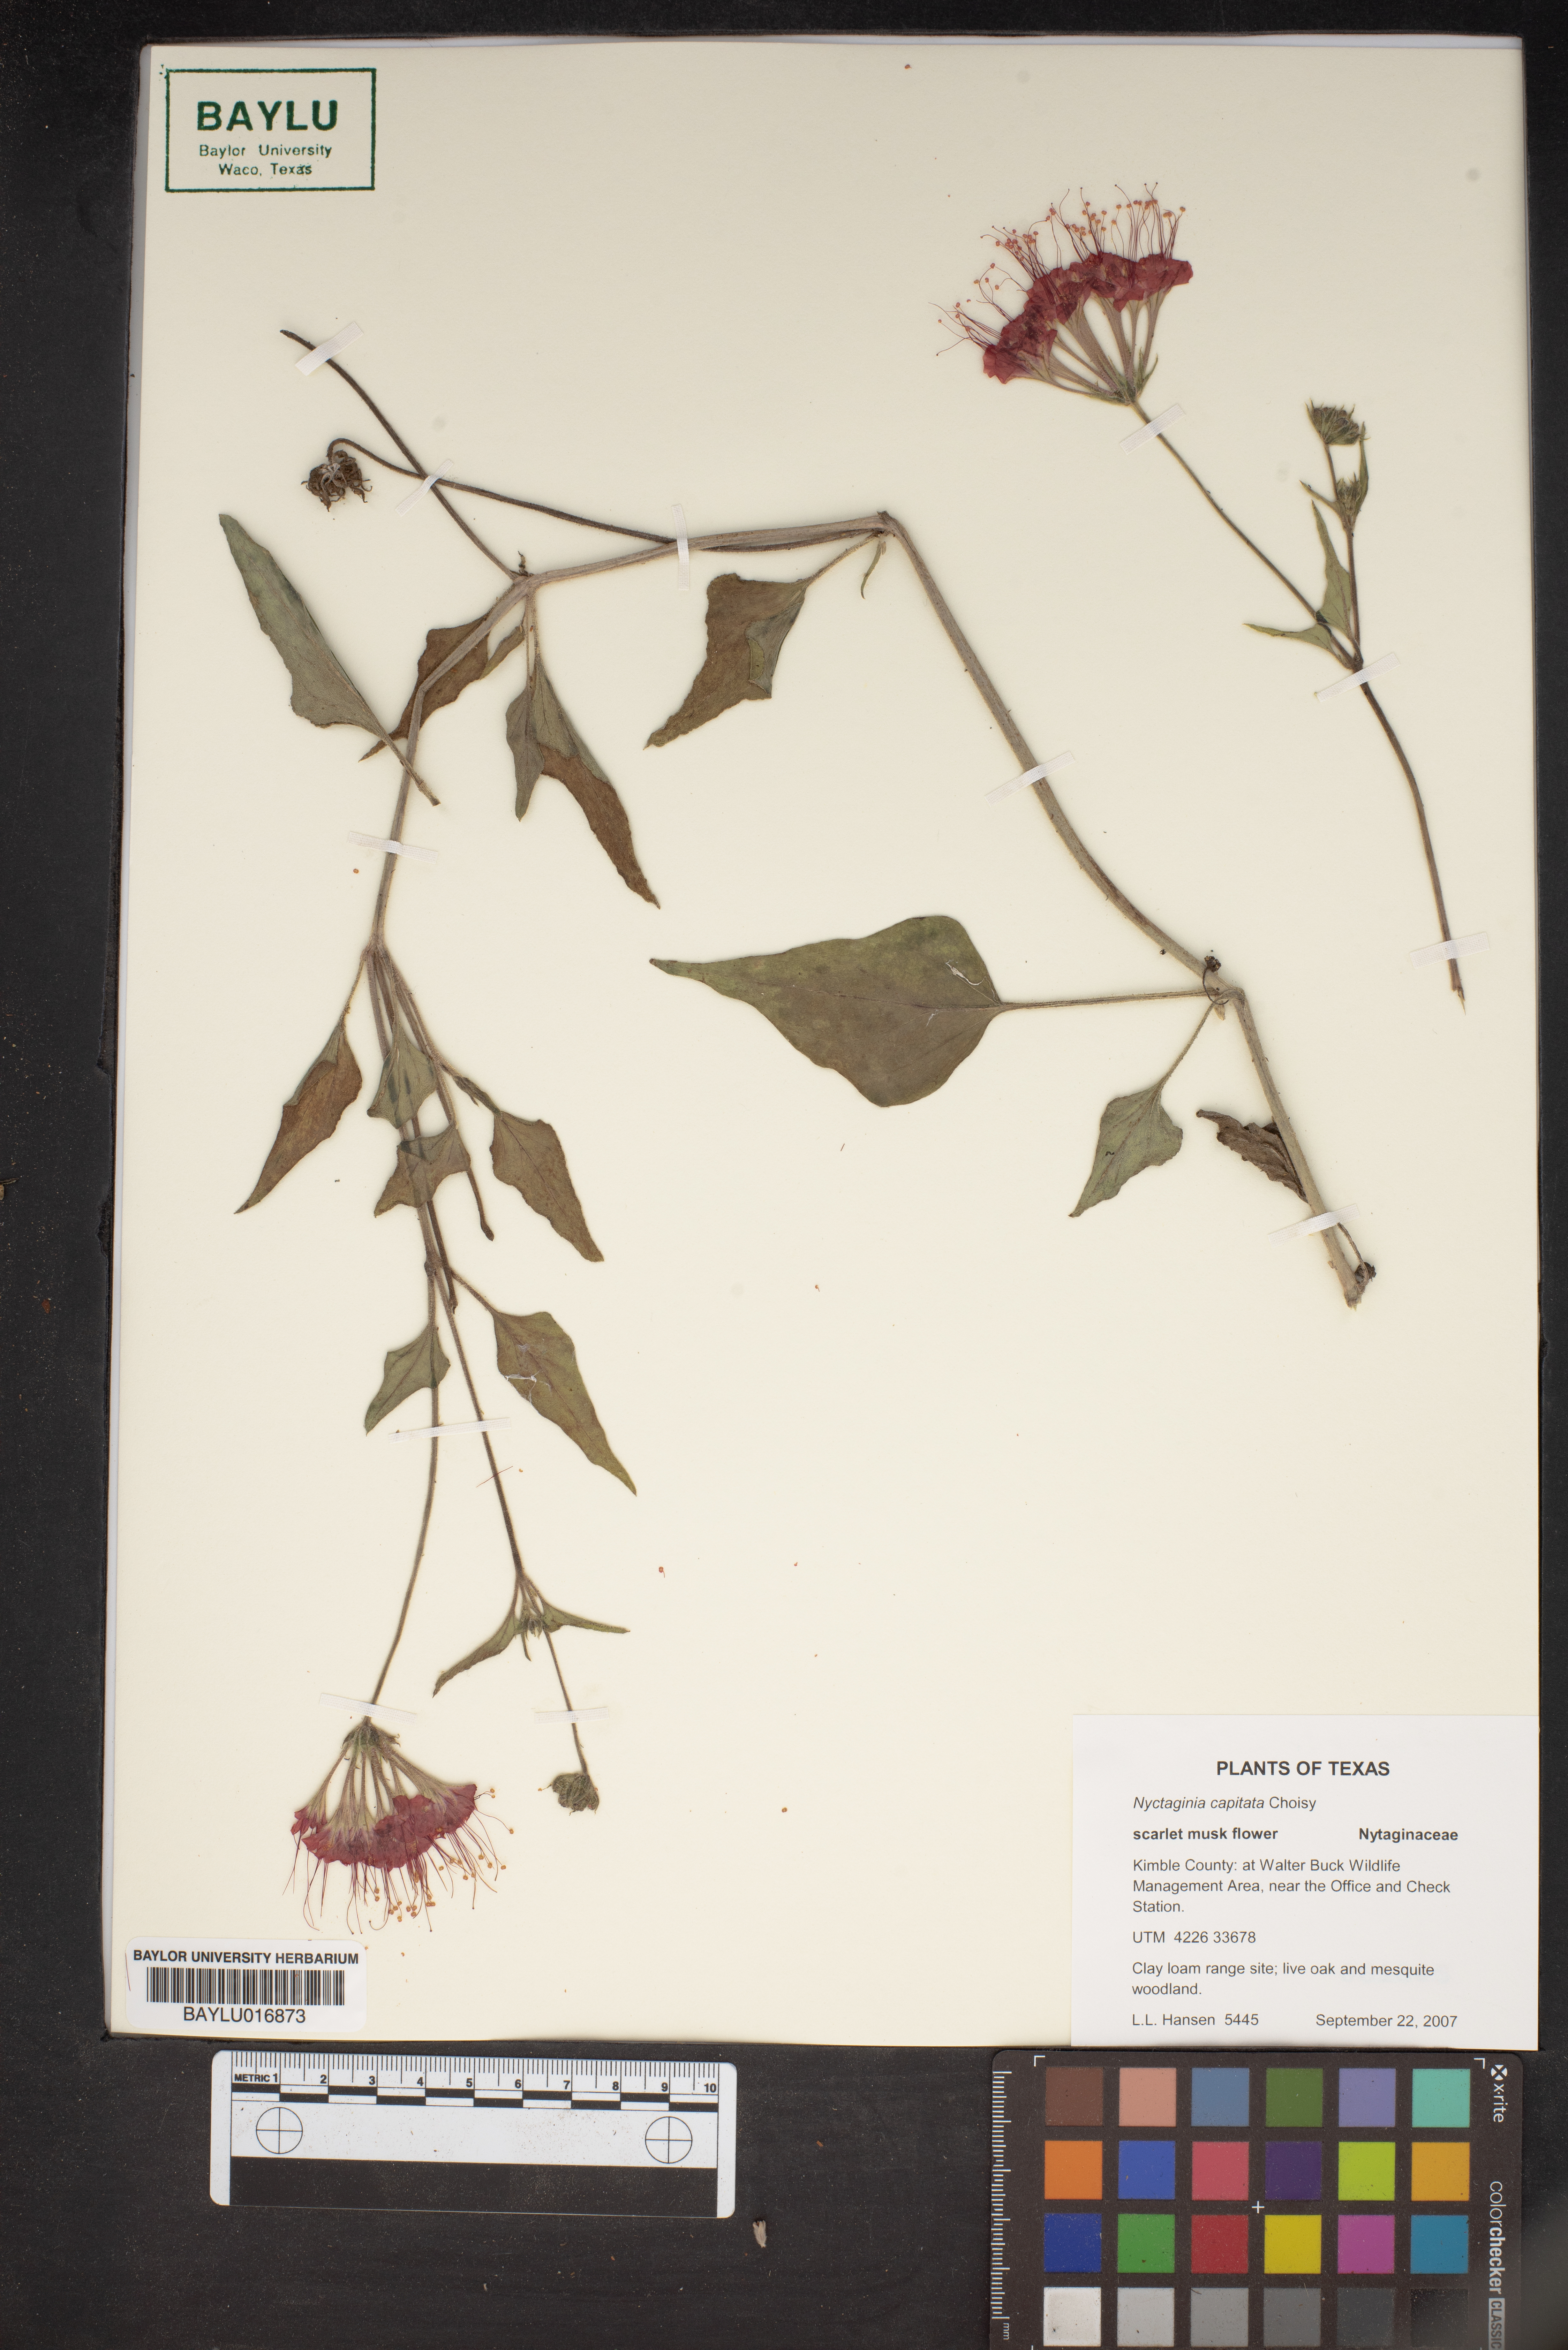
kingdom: Plantae
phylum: Tracheophyta
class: Magnoliopsida
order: Caryophyllales
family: Nyctaginaceae
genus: Nyctaginia
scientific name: Nyctaginia capitata
